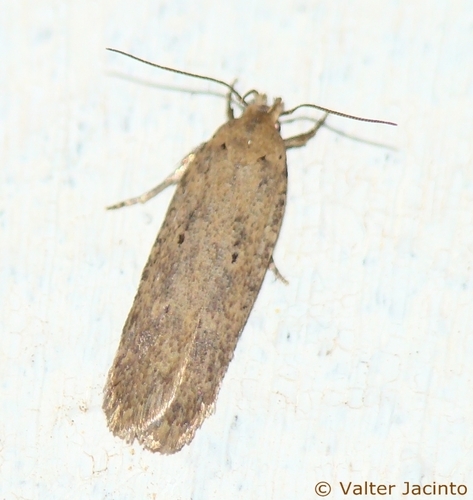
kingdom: Animalia
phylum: Arthropoda
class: Insecta
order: Lepidoptera
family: Gelechiidae
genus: Platyedra
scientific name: Platyedra subcinerea
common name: Moth
